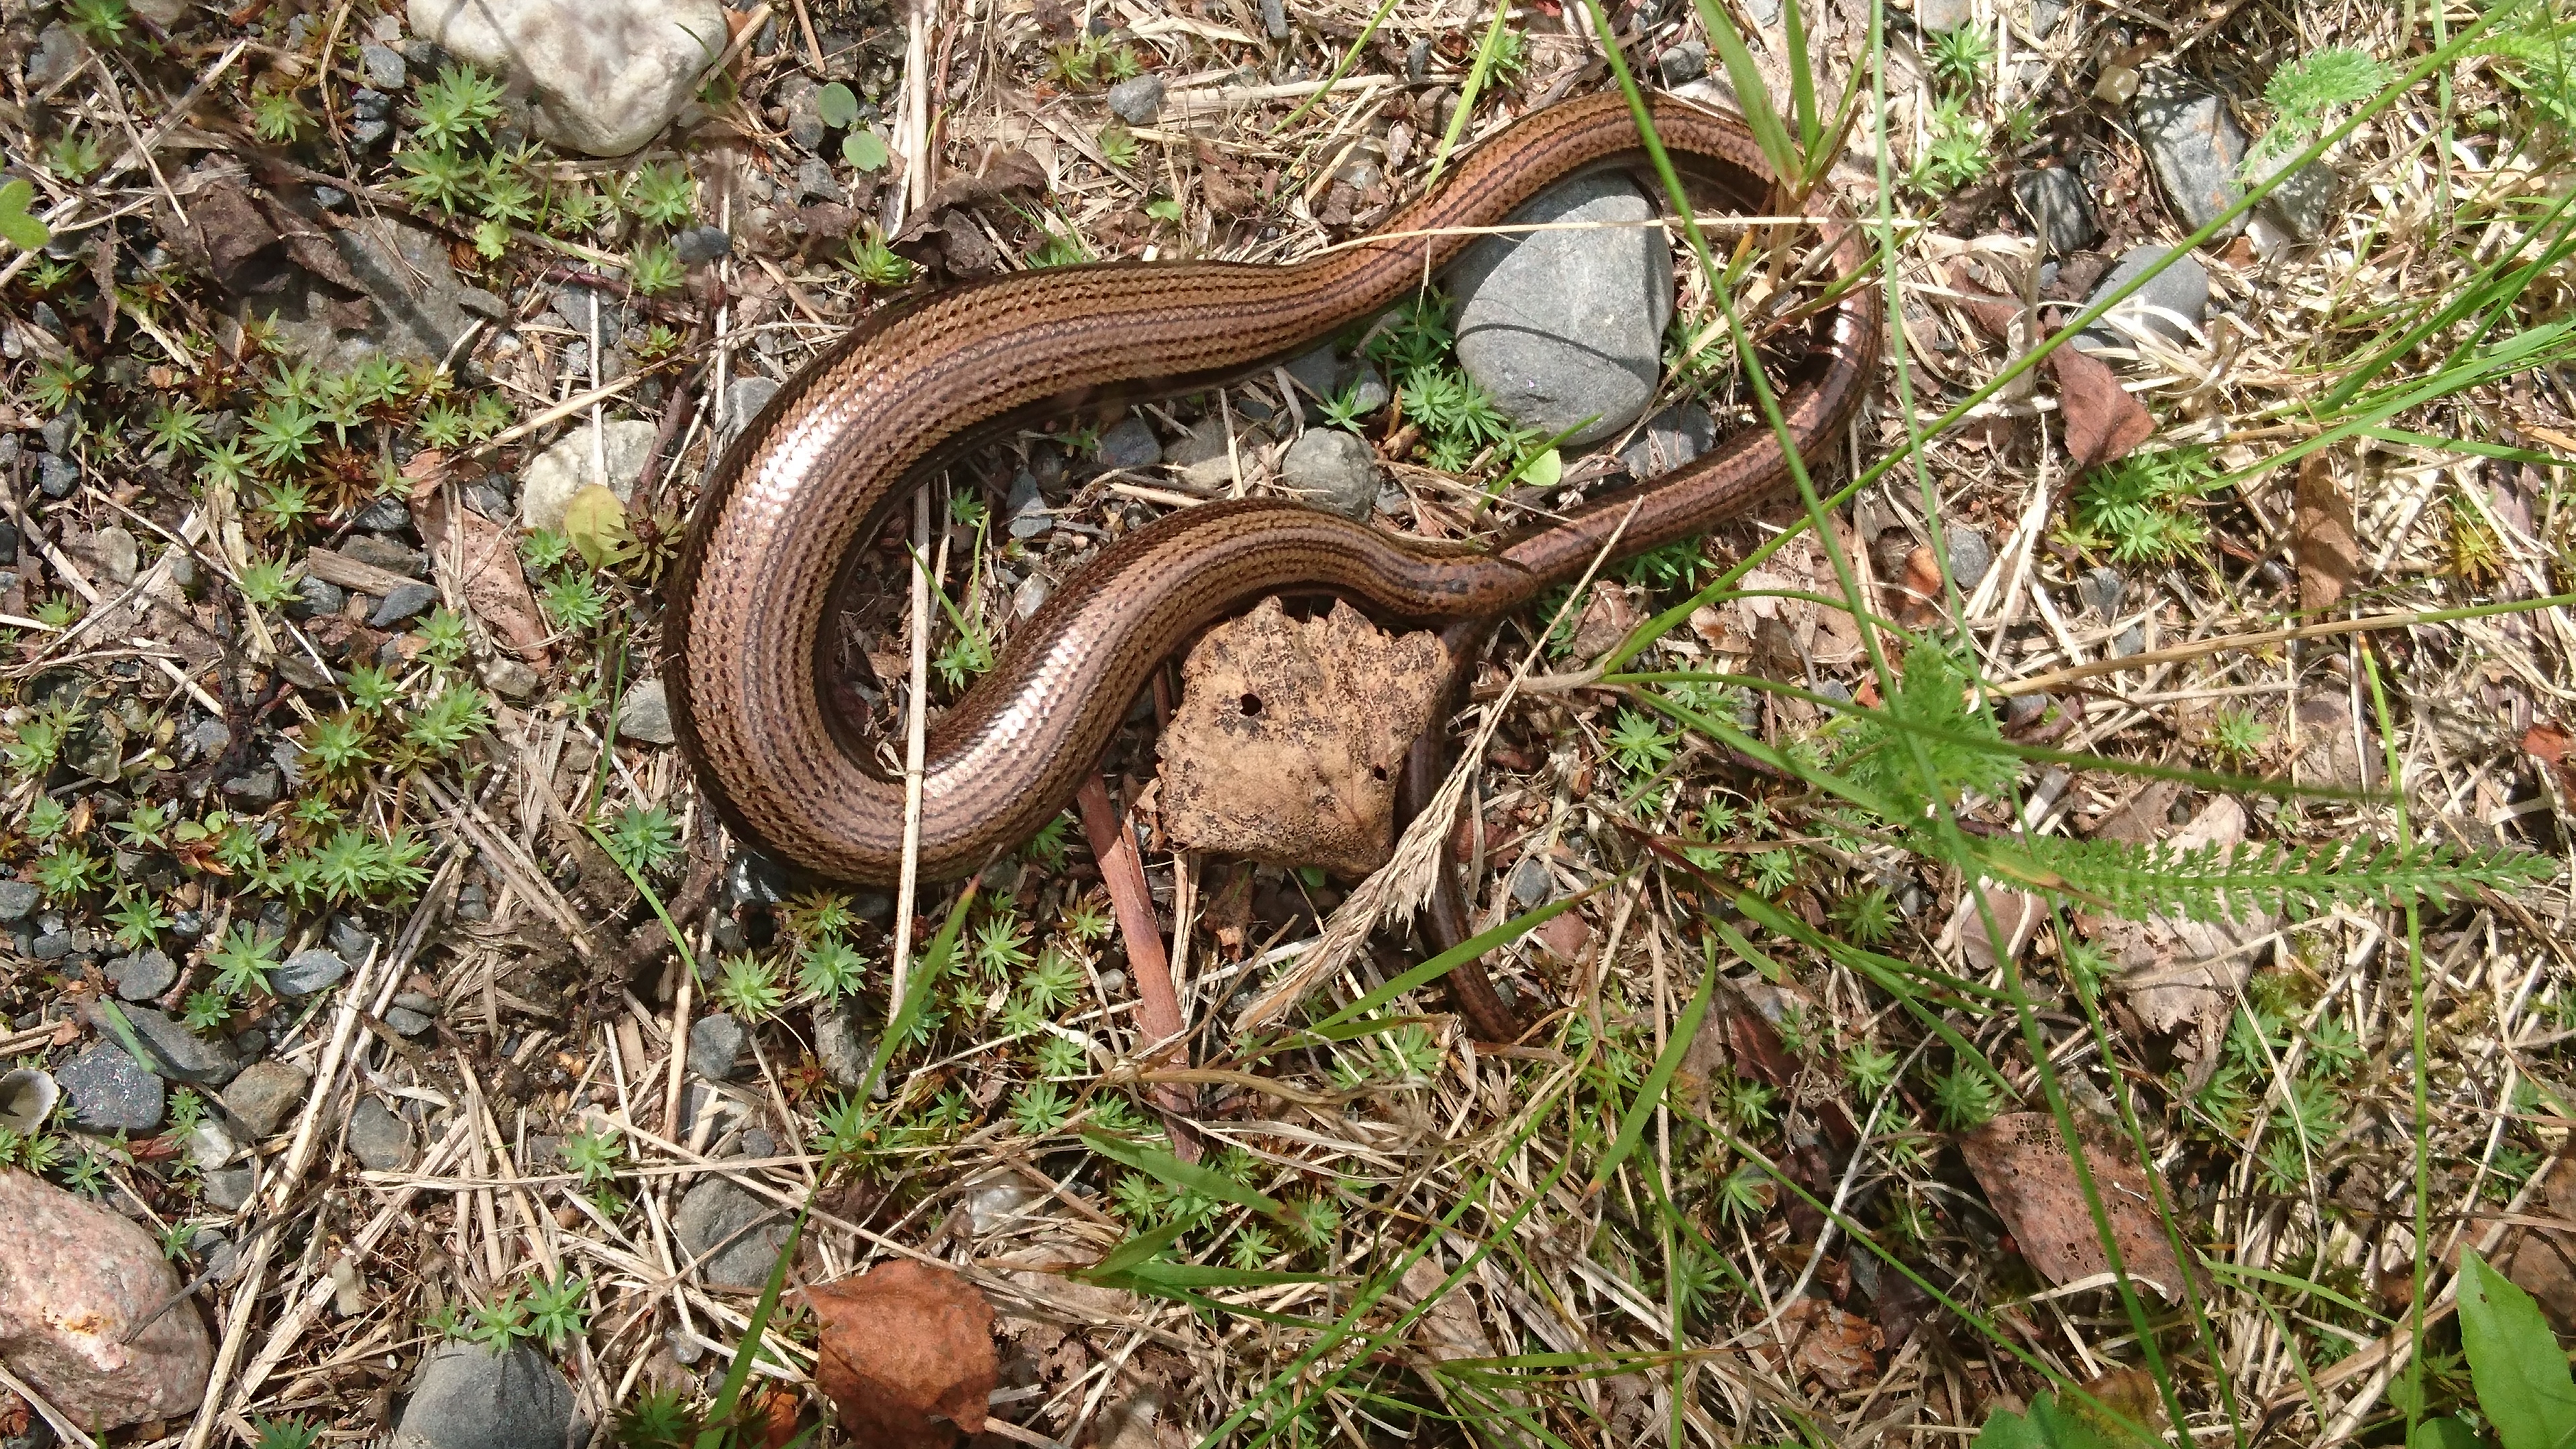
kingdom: Animalia
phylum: Chordata
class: Squamata
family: Anguidae
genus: Anguis
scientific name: Anguis colchica
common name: Slow worm
